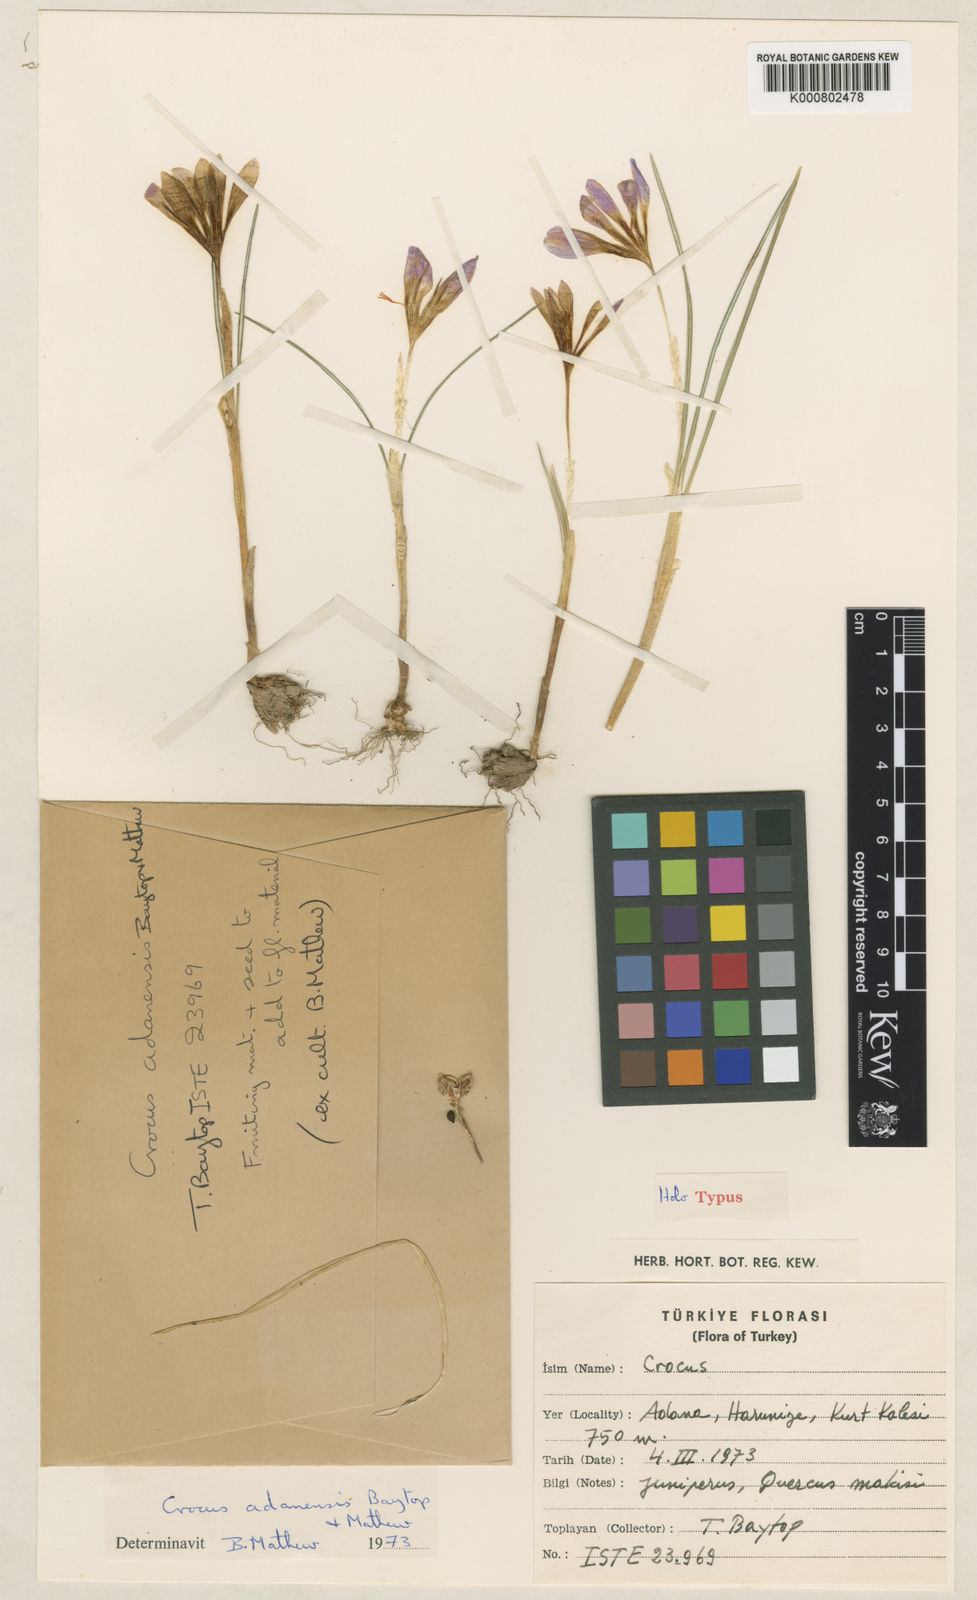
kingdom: Plantae
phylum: Tracheophyta
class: Liliopsida
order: Asparagales
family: Iridaceae
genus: Crocus
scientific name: Crocus adanensis
